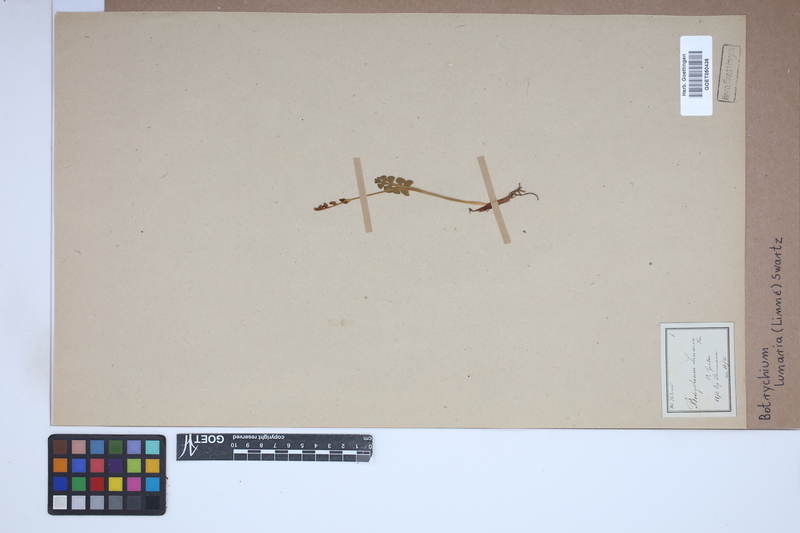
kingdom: Plantae
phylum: Tracheophyta
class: Polypodiopsida
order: Ophioglossales
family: Ophioglossaceae
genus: Botrychium
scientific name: Botrychium lunaria
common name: Moonwort
